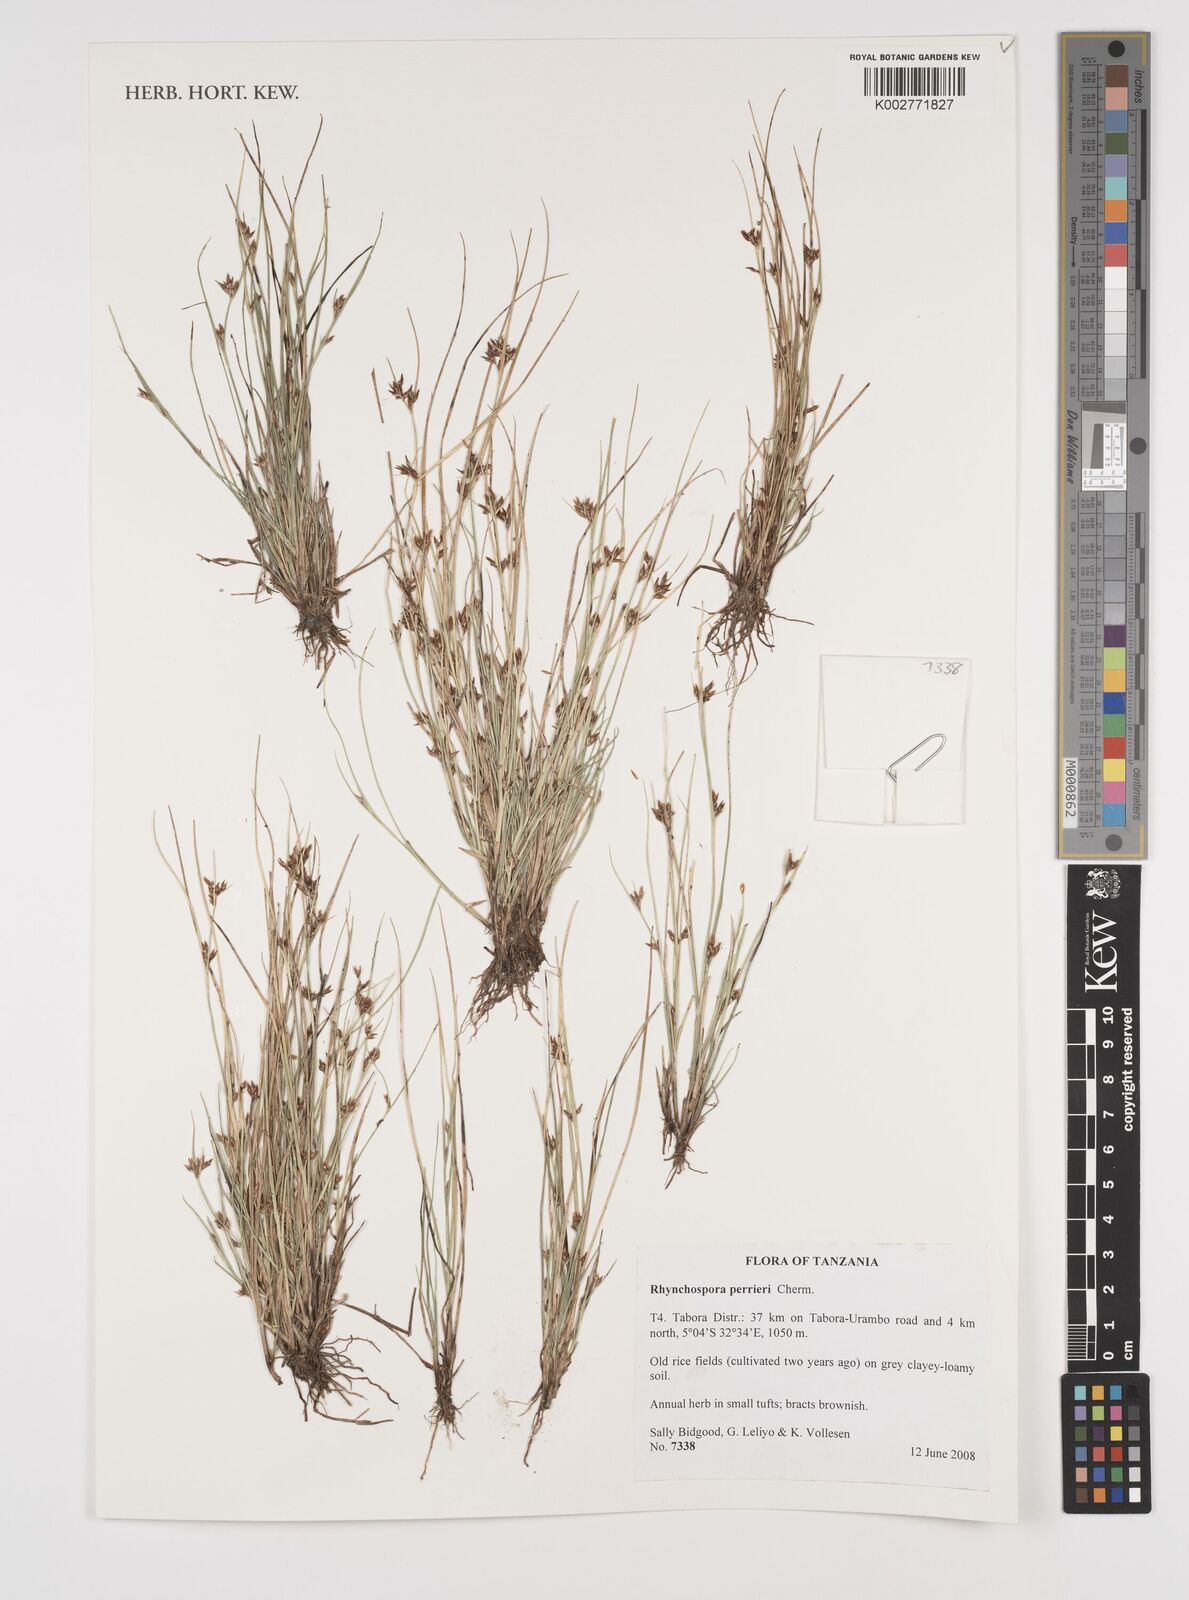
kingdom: Plantae
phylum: Tracheophyta
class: Liliopsida
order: Poales
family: Cyperaceae
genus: Rhynchospora
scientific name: Rhynchospora perrieri
